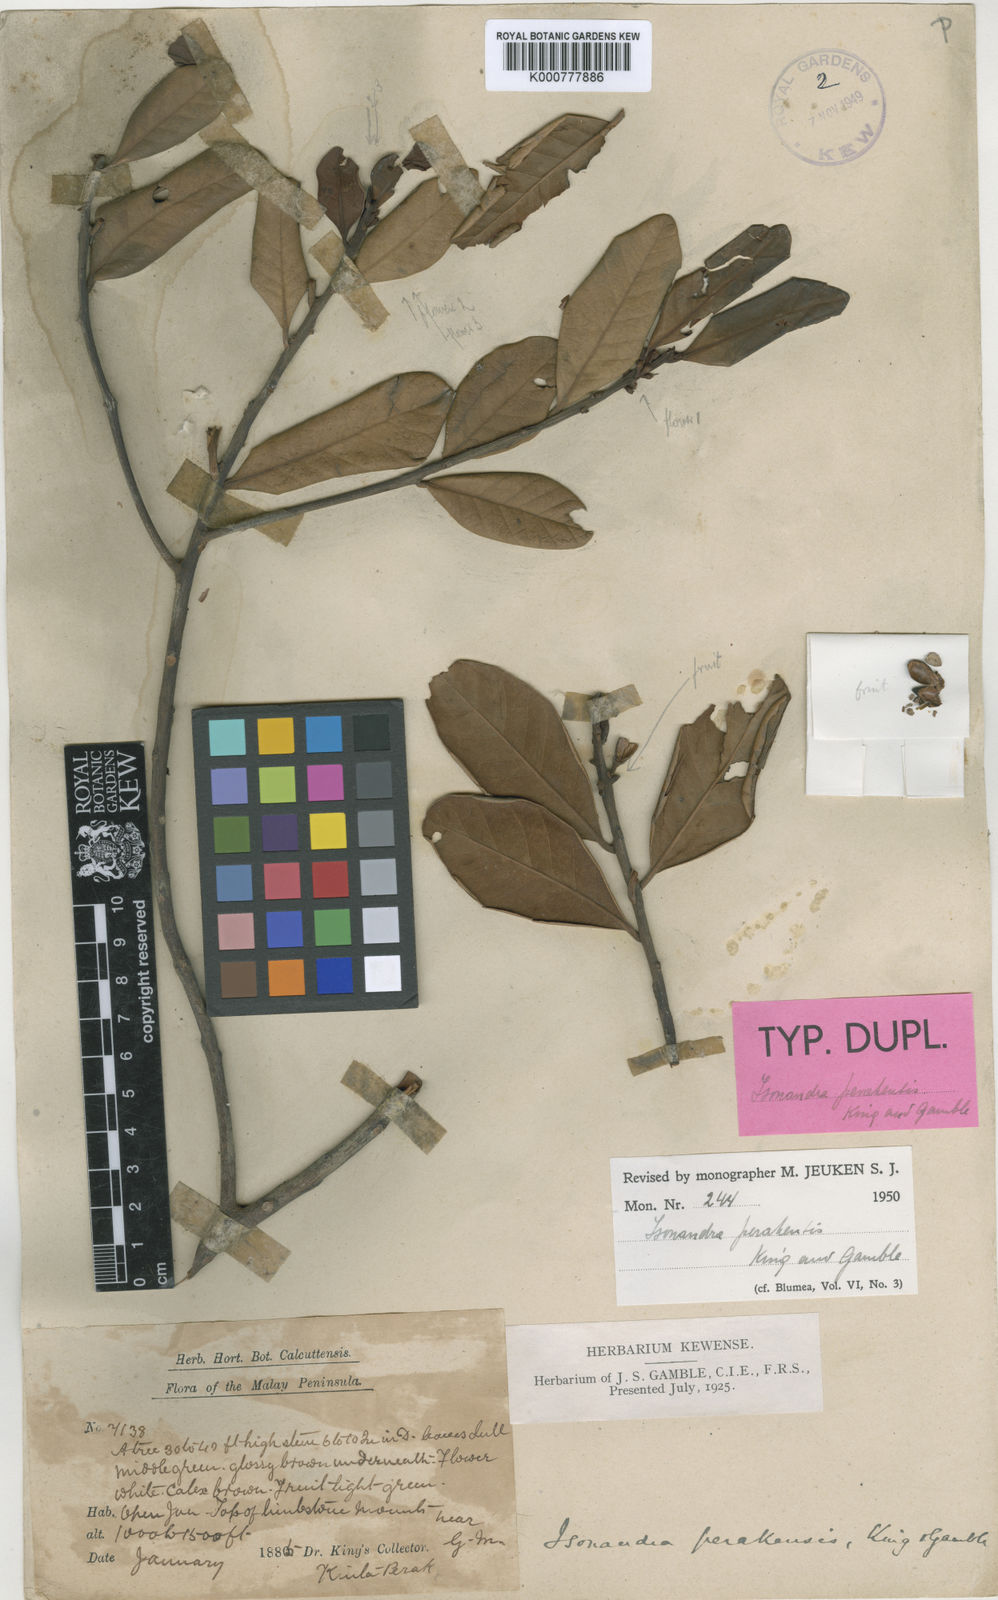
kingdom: Plantae
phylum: Tracheophyta
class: Magnoliopsida
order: Ericales
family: Sapotaceae
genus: Isonandra
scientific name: Isonandra perakensis
